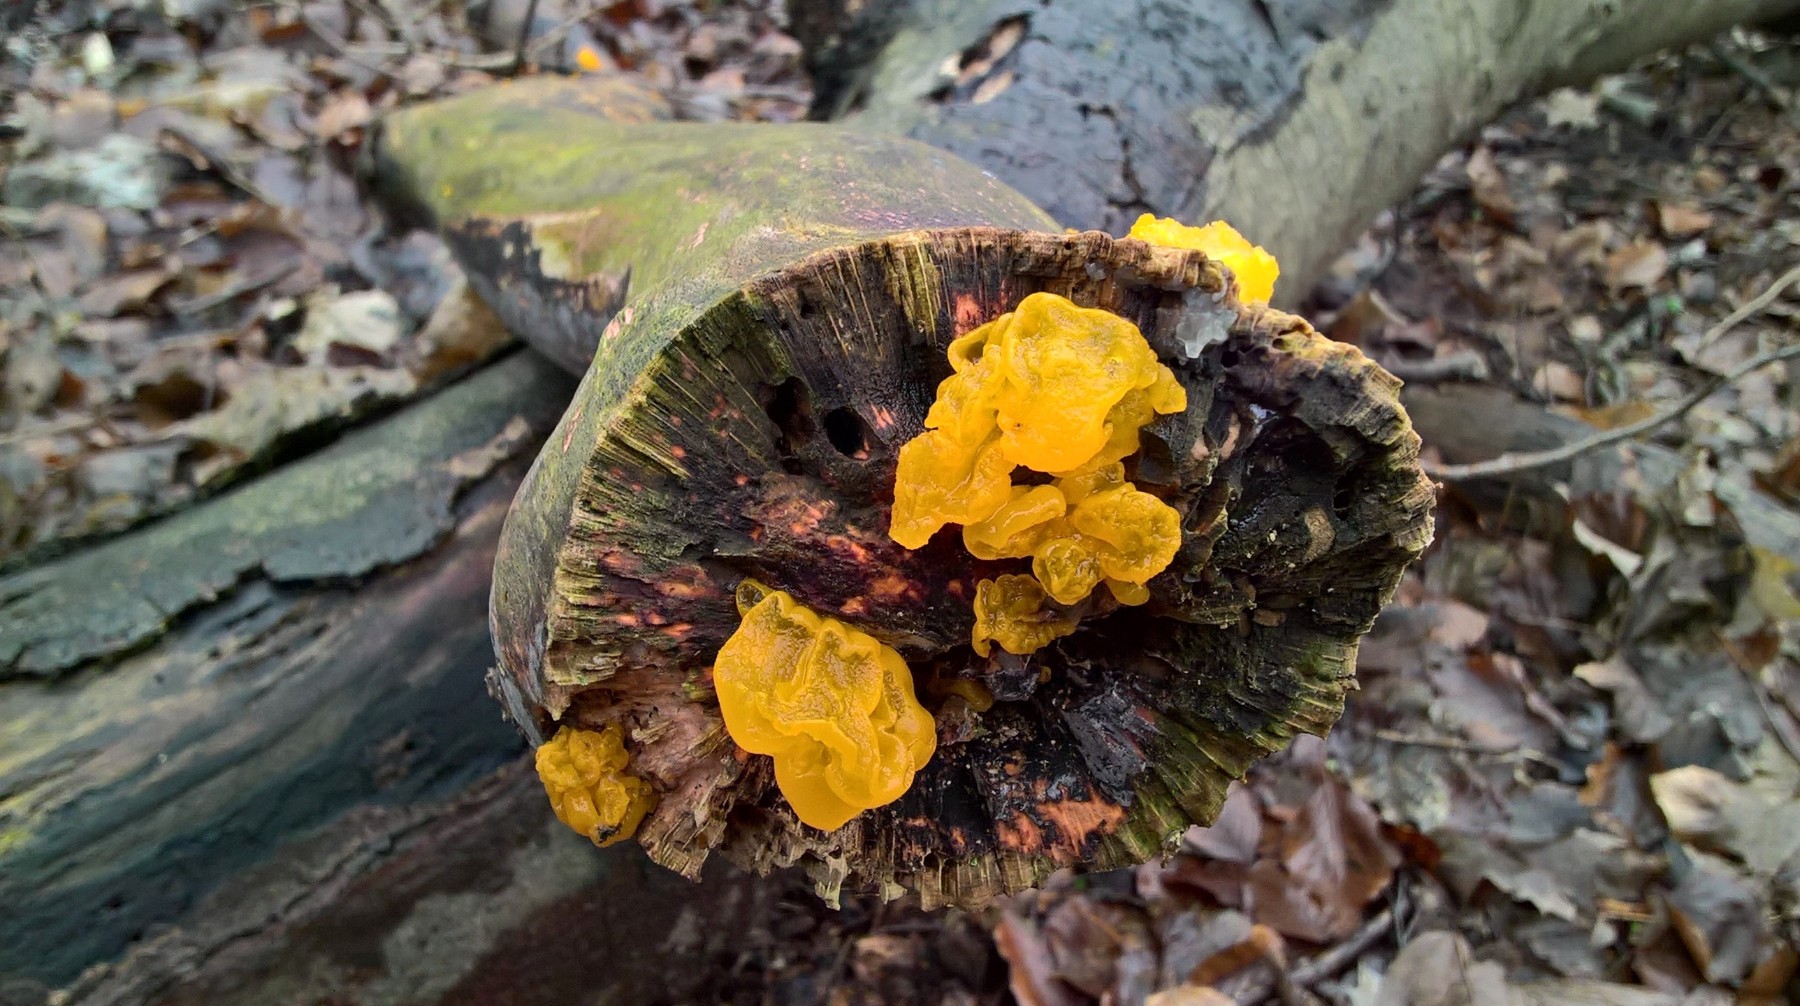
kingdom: Fungi
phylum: Basidiomycota
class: Tremellomycetes
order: Tremellales
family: Tremellaceae
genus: Tremella
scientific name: Tremella mesenterica
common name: gul bævresvamp
